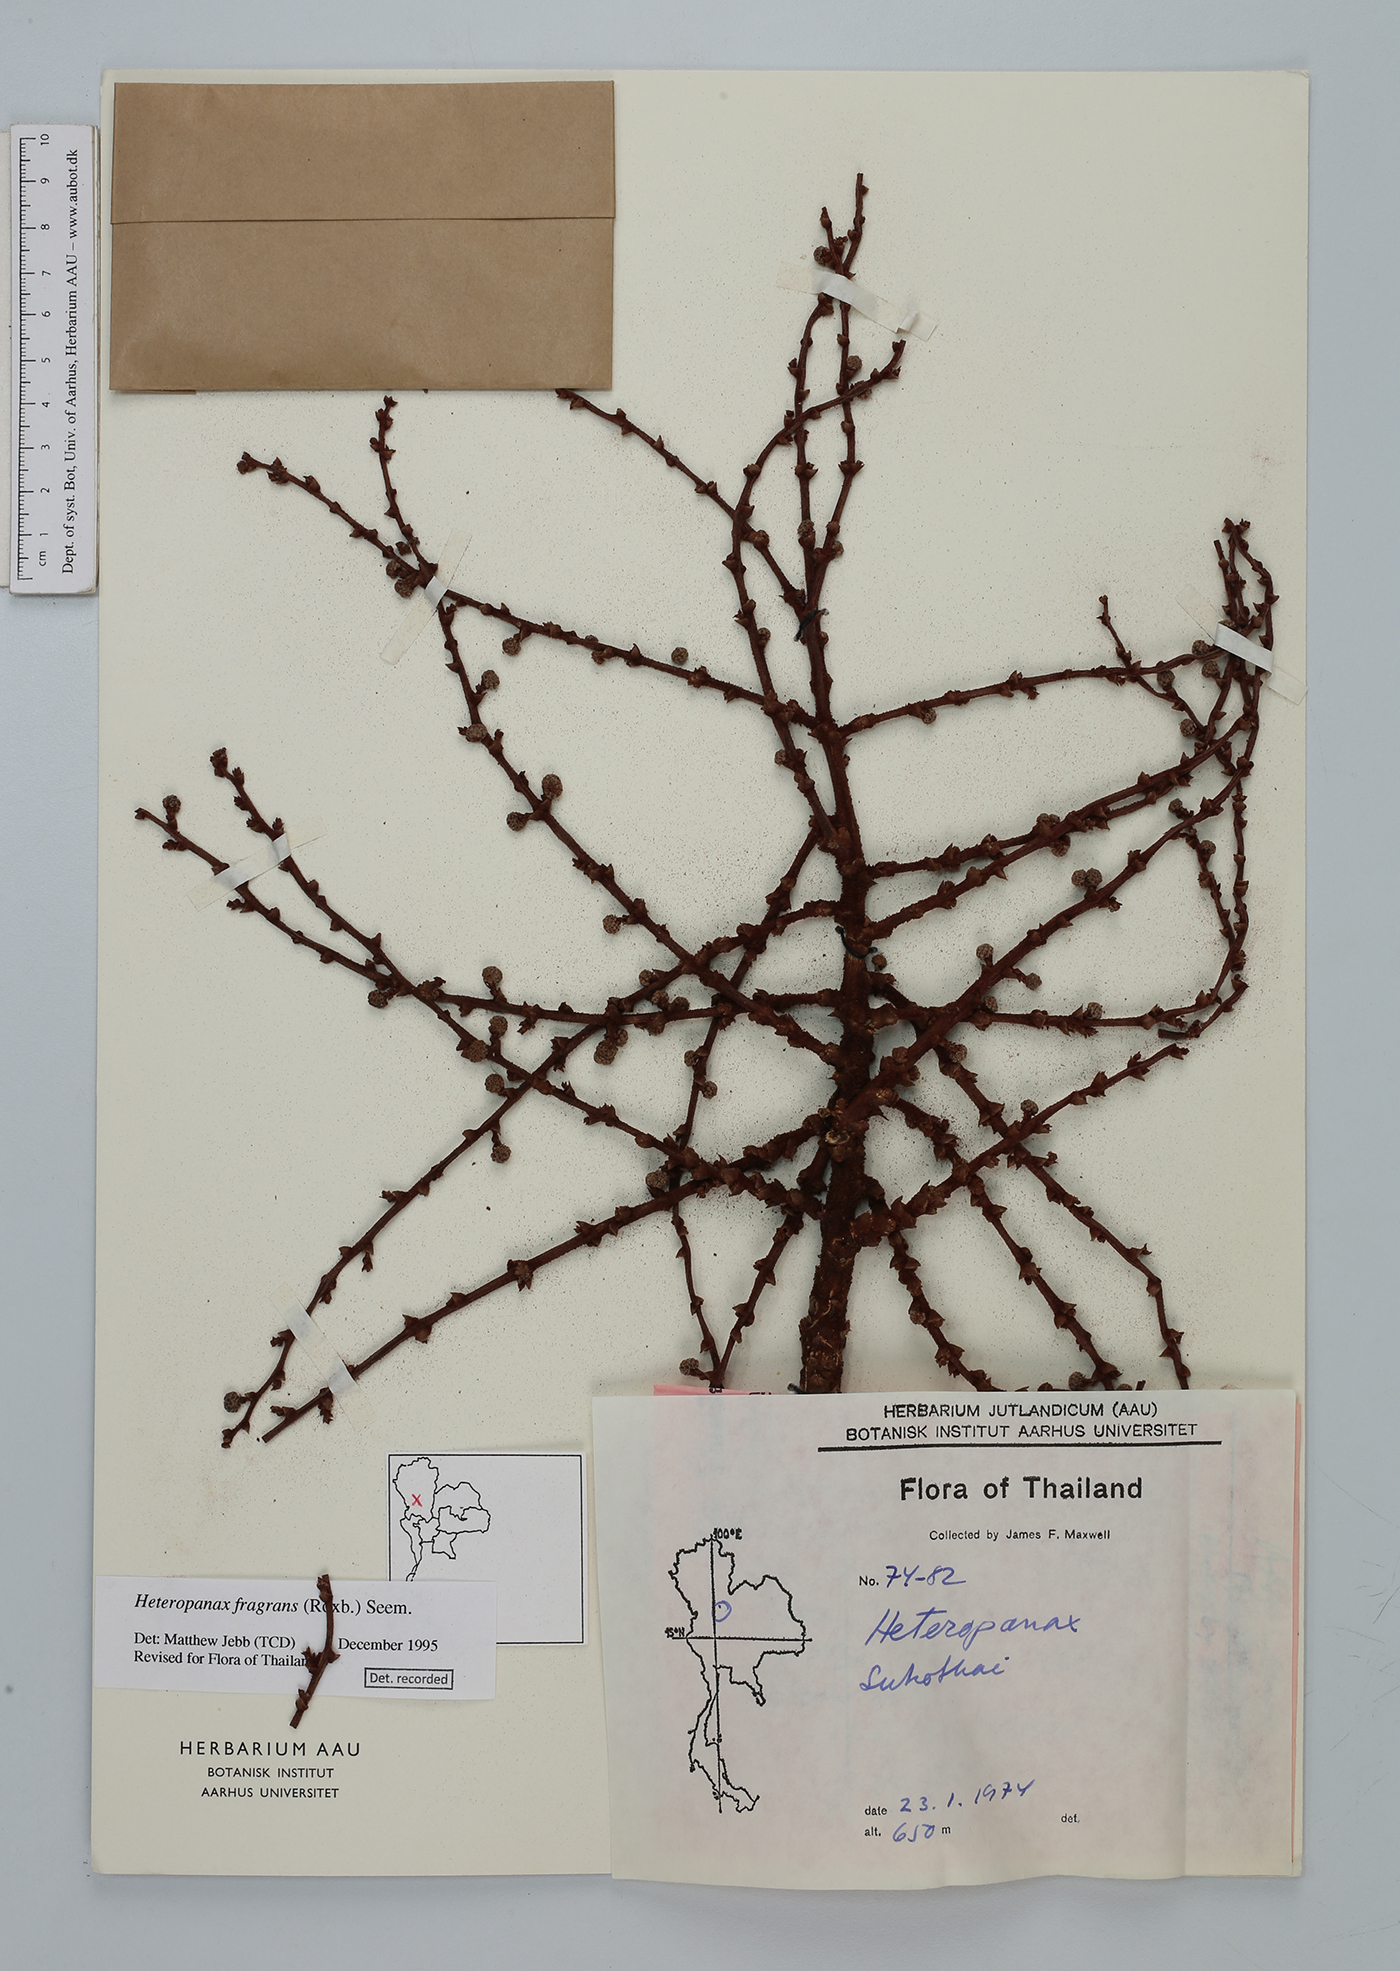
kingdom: Plantae
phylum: Tracheophyta
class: Magnoliopsida
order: Apiales
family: Araliaceae
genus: Heteropanax
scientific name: Heteropanax fragrans
